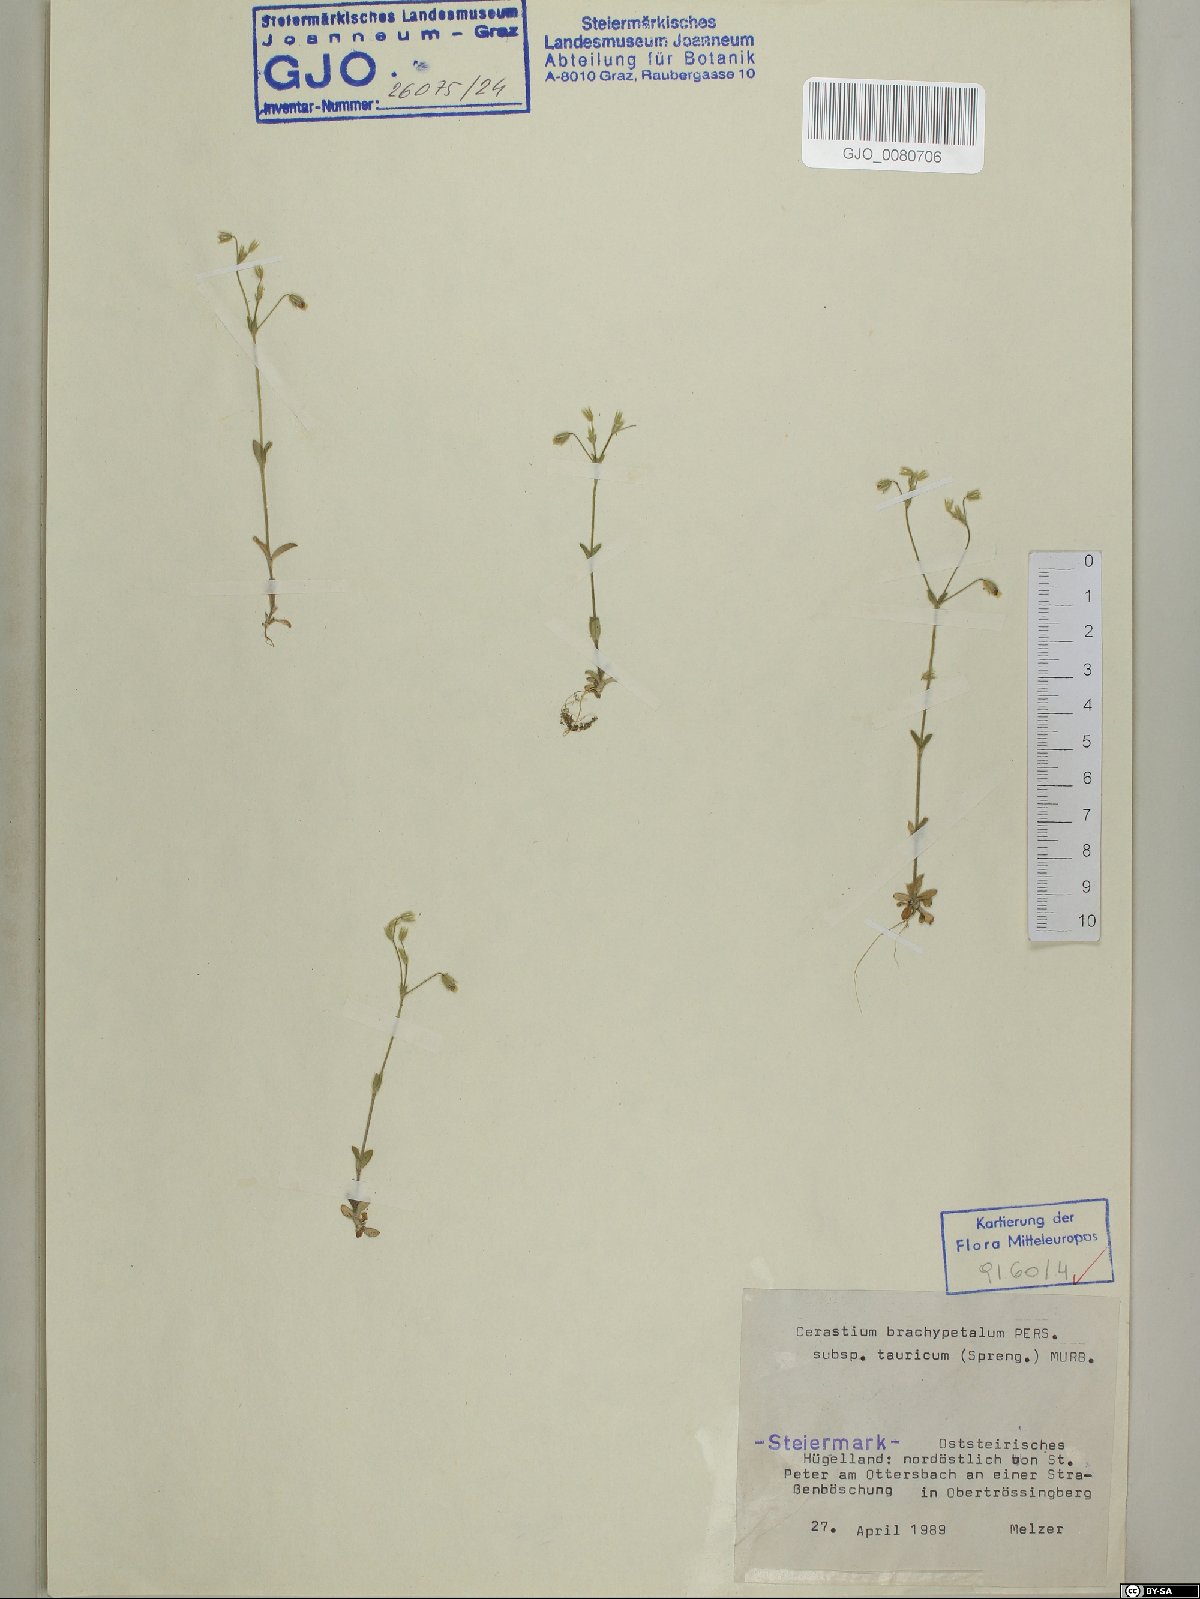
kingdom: Plantae
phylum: Tracheophyta
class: Magnoliopsida
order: Caryophyllales
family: Caryophyllaceae
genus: Cerastium
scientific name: Cerastium brachypetalum
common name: Grey mouse-ear
